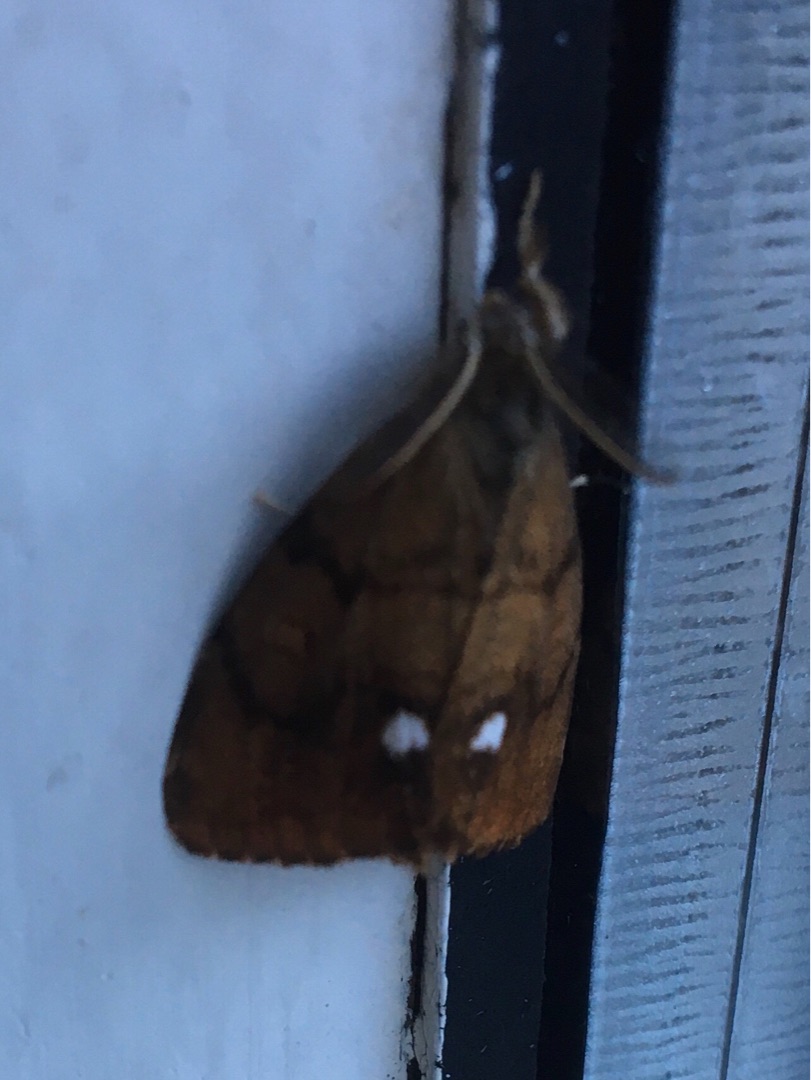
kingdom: Animalia
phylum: Arthropoda
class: Insecta
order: Lepidoptera
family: Erebidae
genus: Orgyia
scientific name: Orgyia antiqua
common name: Lille penselspinder
